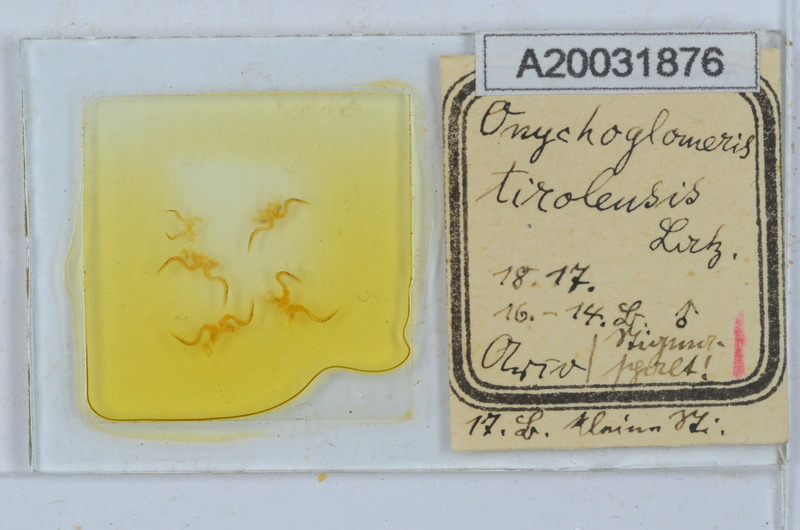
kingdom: Animalia
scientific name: Animalia
